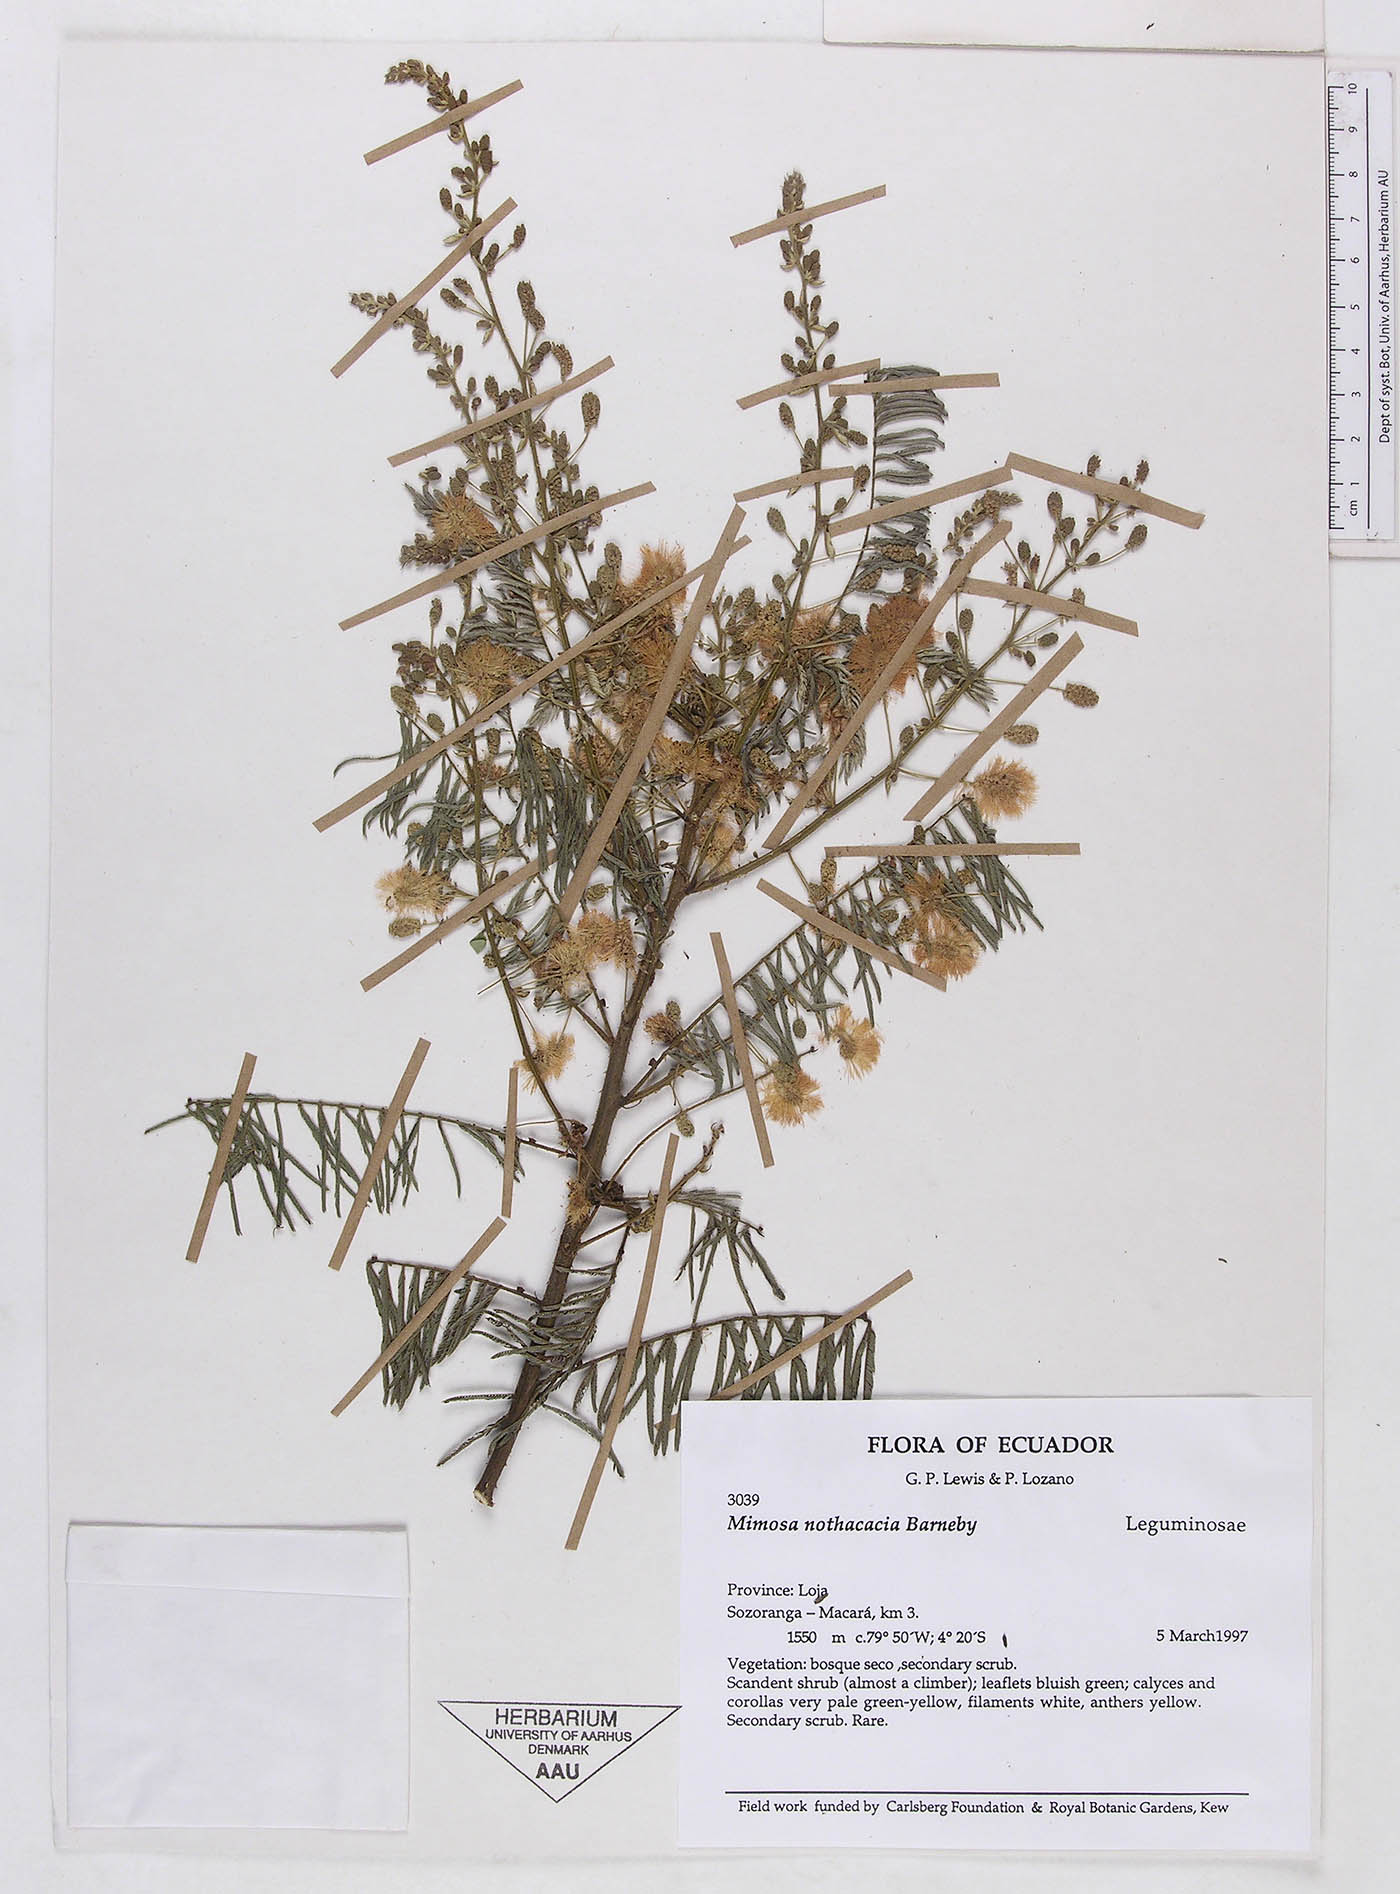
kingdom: Plantae
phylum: Tracheophyta
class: Magnoliopsida
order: Fabales
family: Fabaceae
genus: Mimosa
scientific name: Mimosa nothacacia
